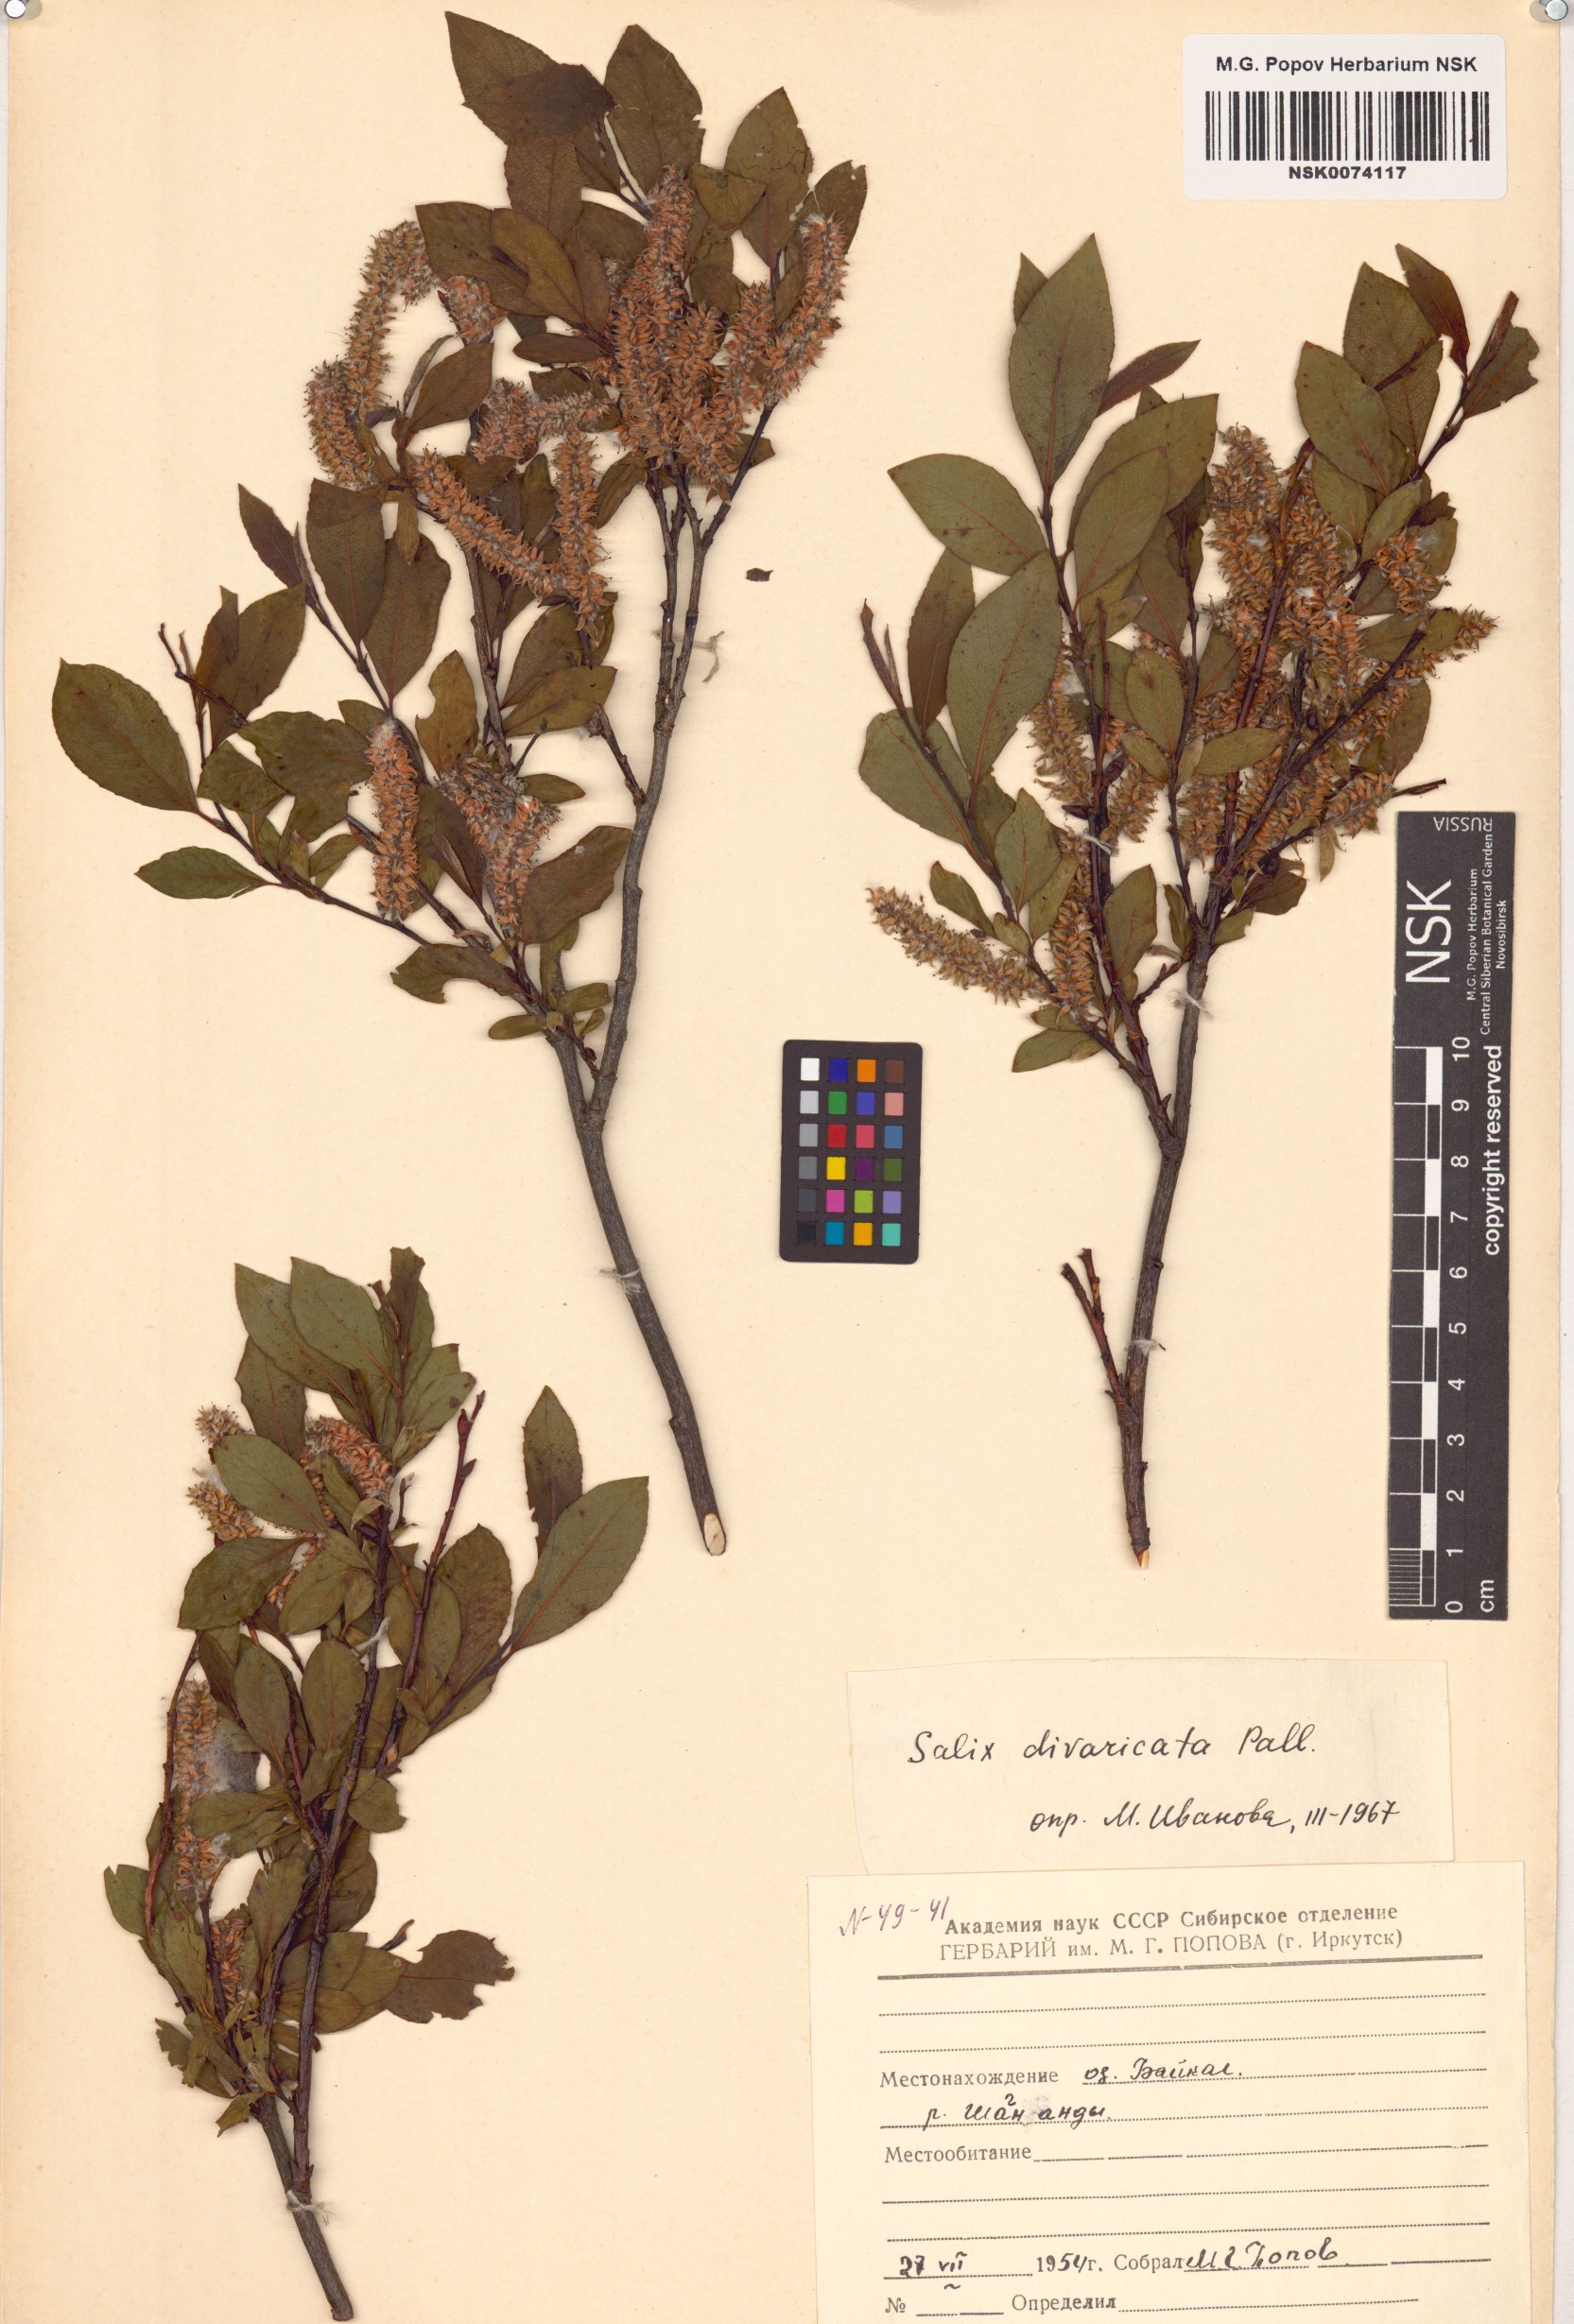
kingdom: Plantae
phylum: Tracheophyta
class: Magnoliopsida
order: Malpighiales
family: Salicaceae
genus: Salix
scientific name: Salix divaricata
